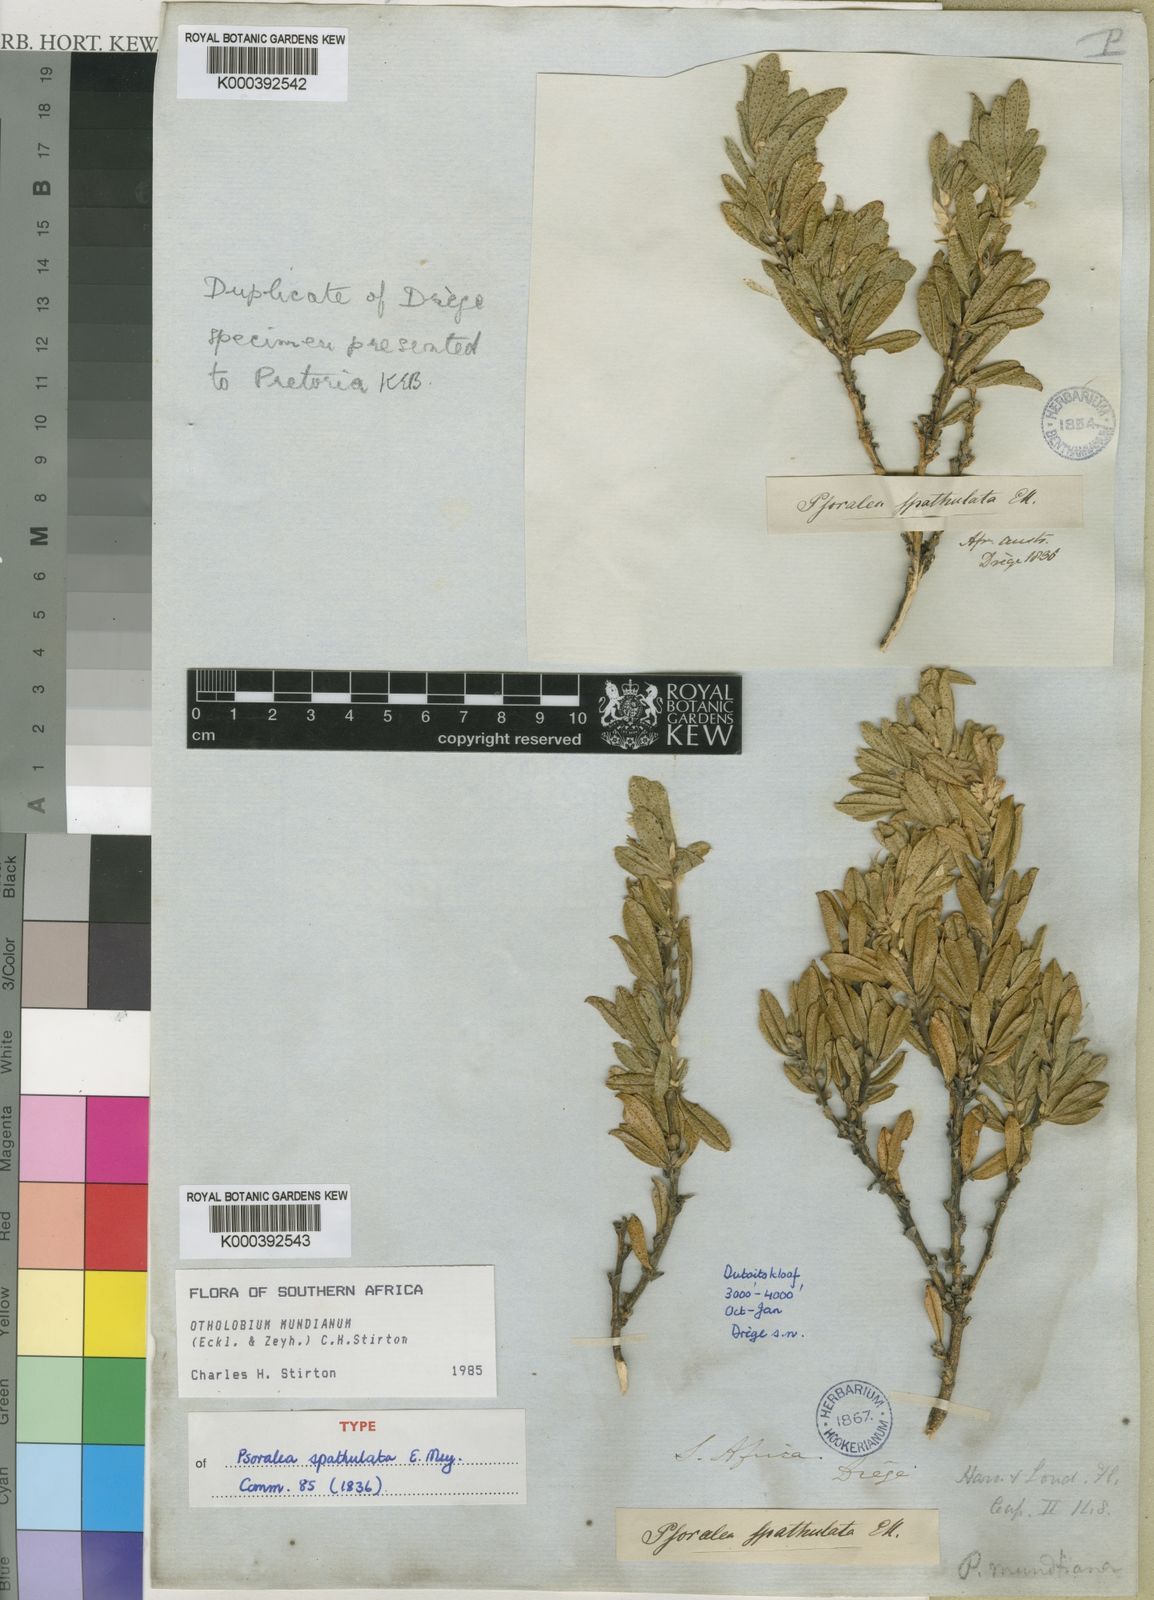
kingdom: Plantae
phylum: Tracheophyta
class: Magnoliopsida
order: Fabales
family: Fabaceae
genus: Psoralea
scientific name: Psoralea mundiana
